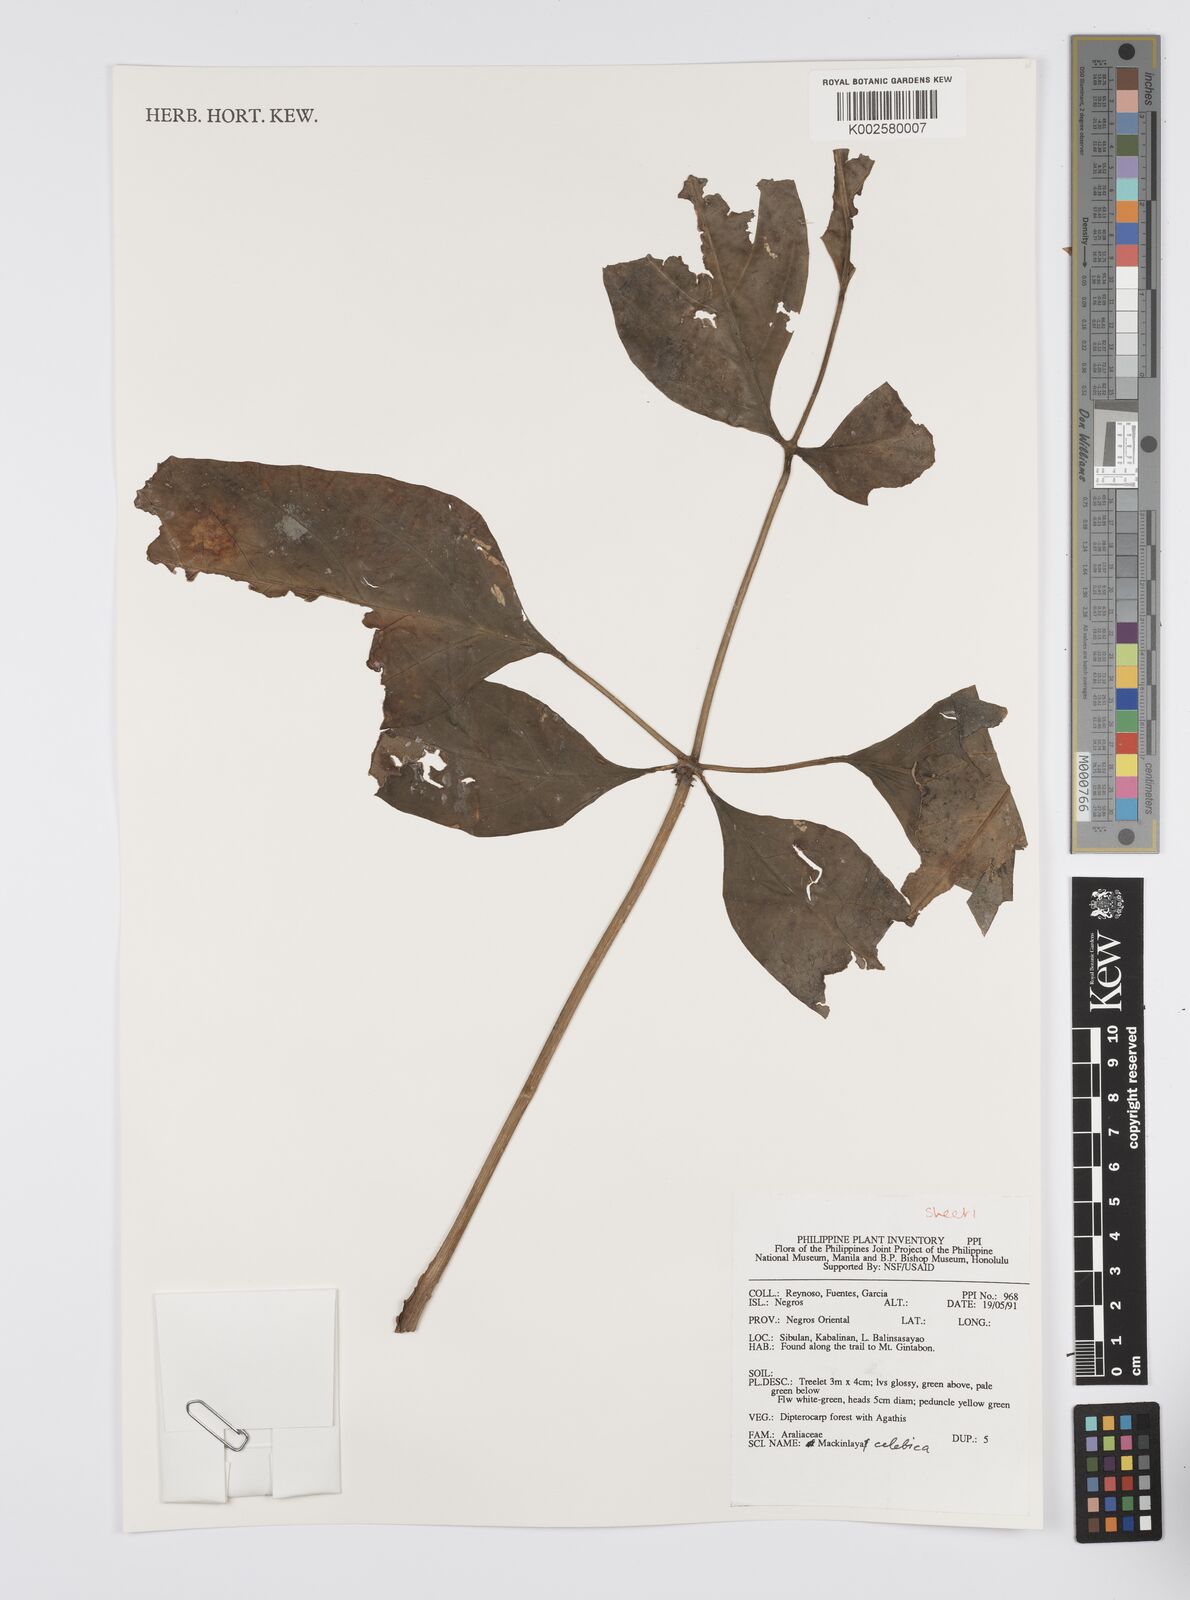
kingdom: Plantae
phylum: Tracheophyta
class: Magnoliopsida
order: Apiales
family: Apiaceae
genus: Mackinlaya
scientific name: Mackinlaya celebica
